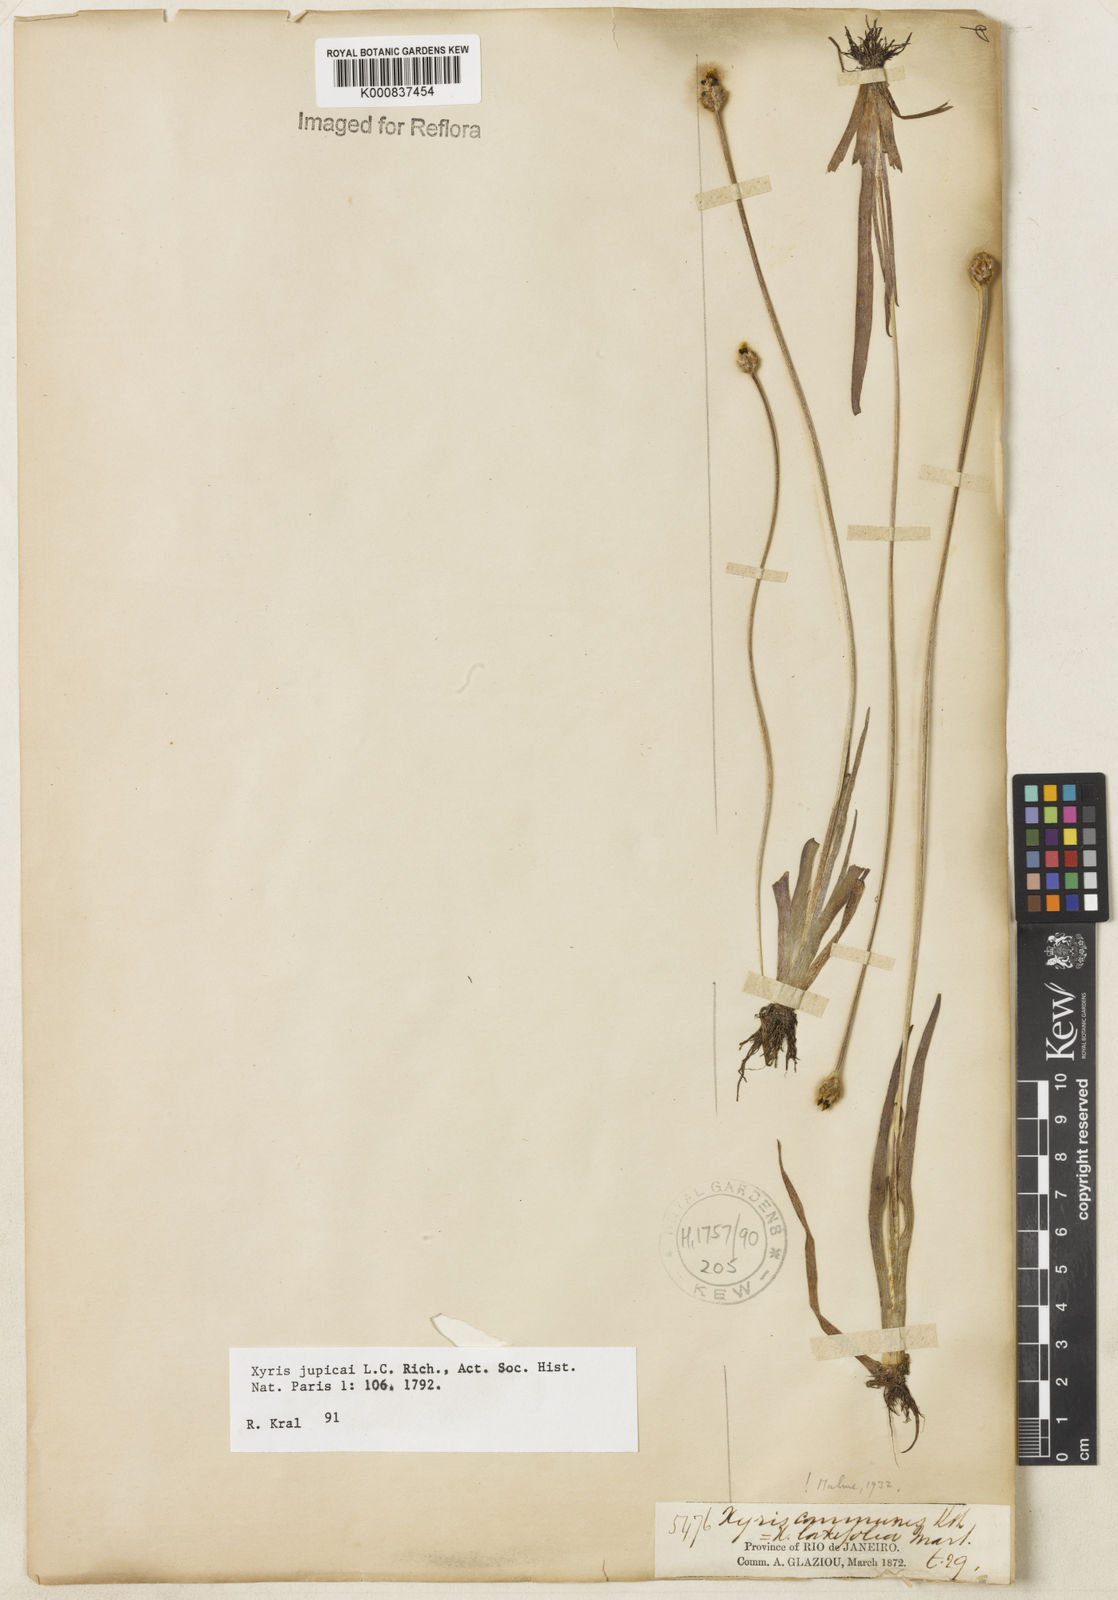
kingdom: Plantae
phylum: Tracheophyta
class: Liliopsida
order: Poales
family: Xyridaceae
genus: Xyris
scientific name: Xyris jupicai
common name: Richard's yelloweyed grass
